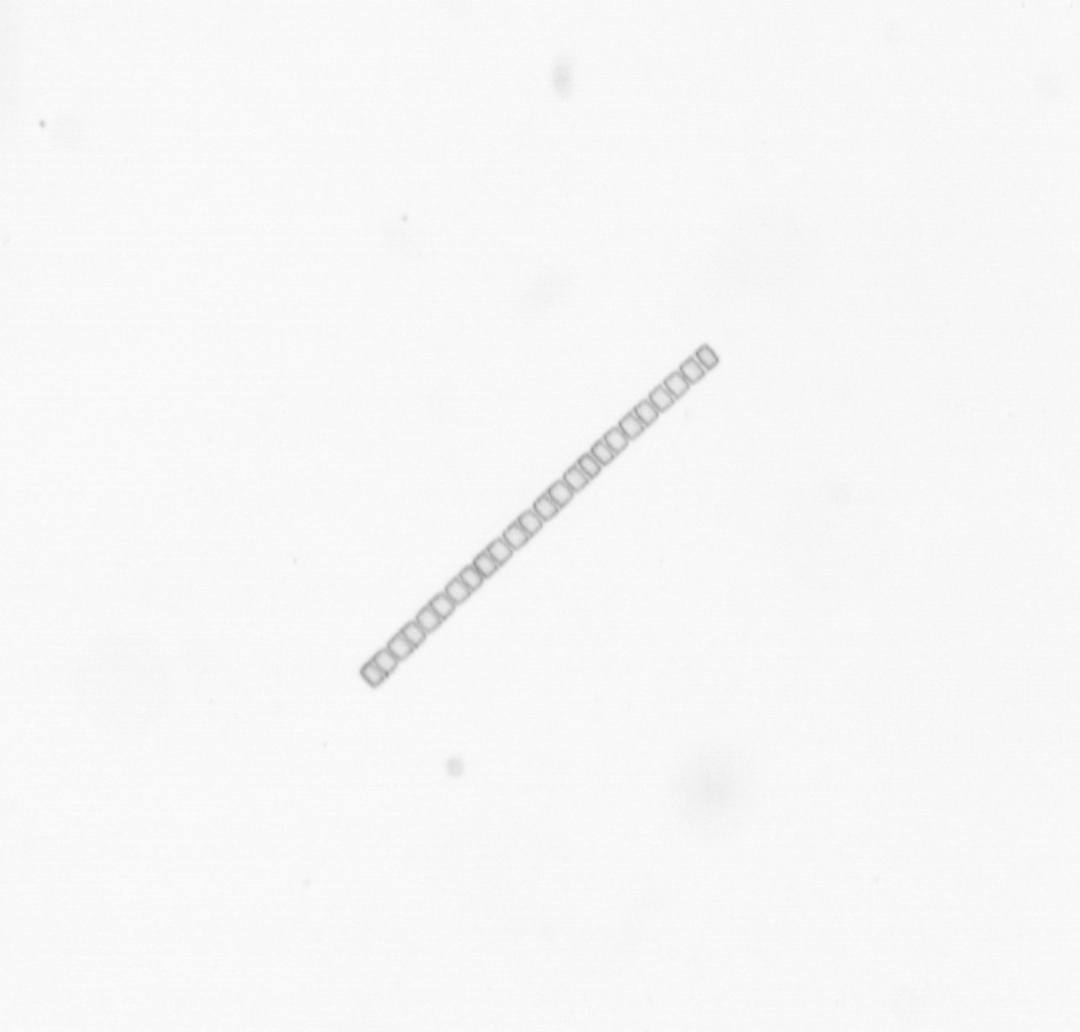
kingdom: Chromista
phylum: Ochrophyta
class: Bacillariophyceae
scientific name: Bacillariophyceae
